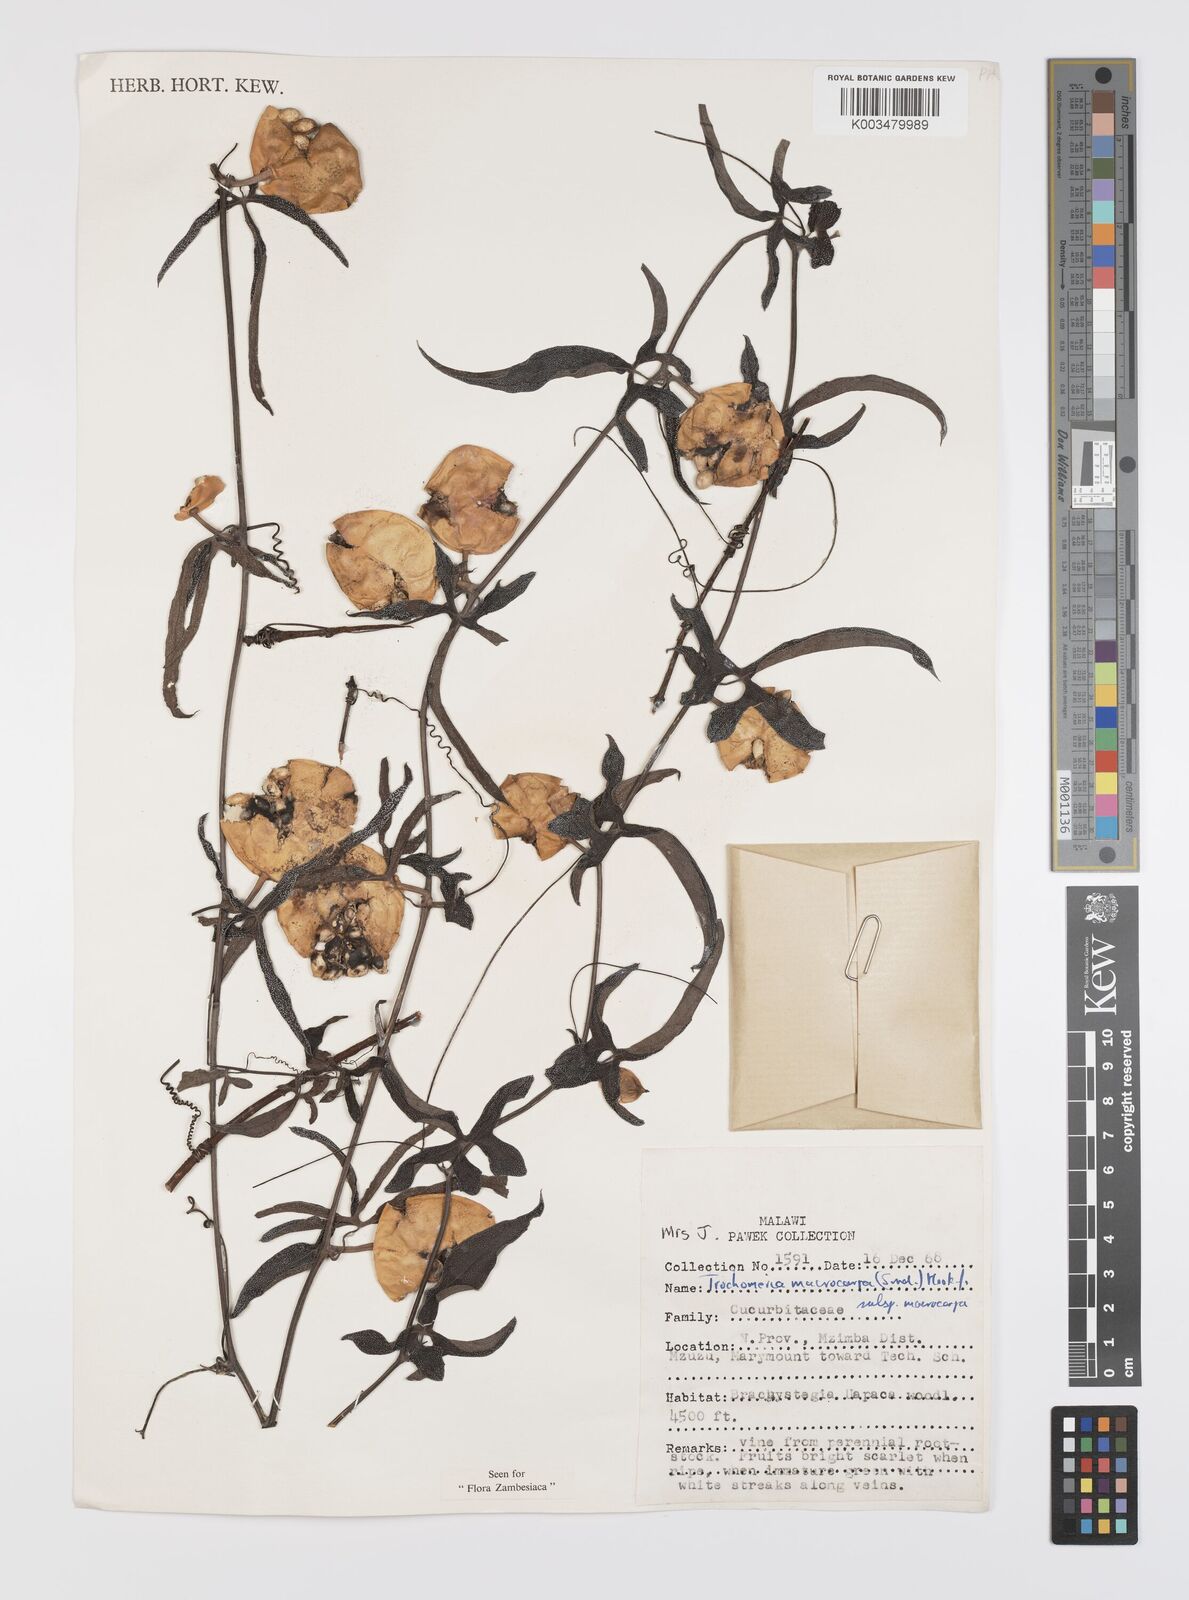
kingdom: Plantae
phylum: Tracheophyta
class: Magnoliopsida
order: Cucurbitales
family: Cucurbitaceae
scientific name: Cucurbitaceae
